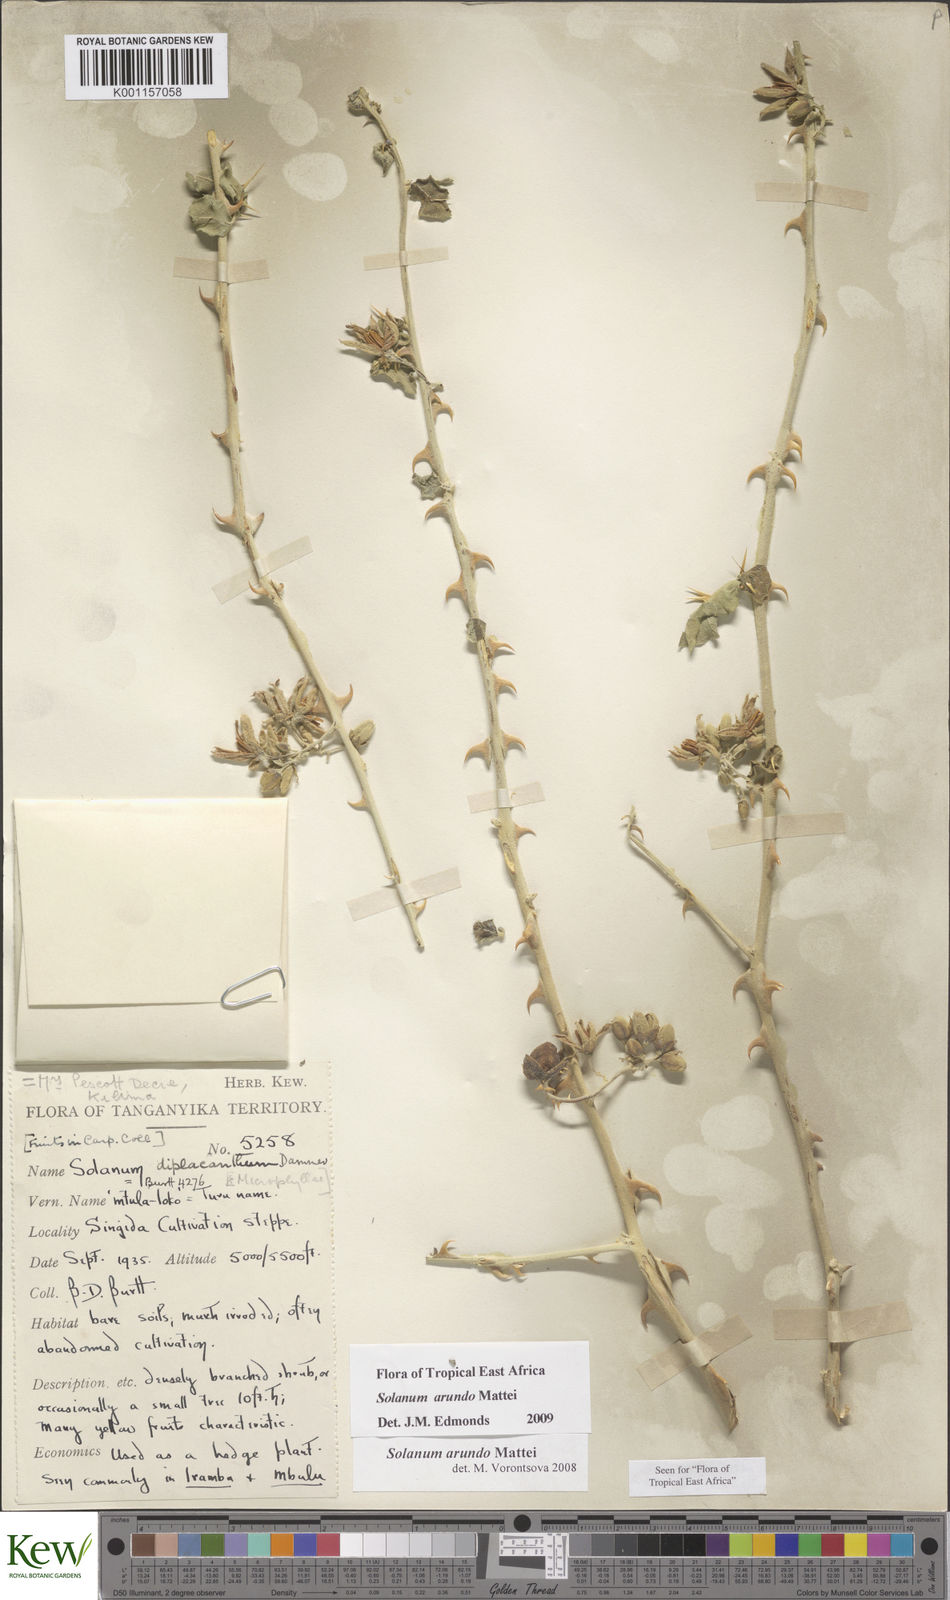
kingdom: Plantae
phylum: Tracheophyta
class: Magnoliopsida
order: Solanales
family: Solanaceae
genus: Solanum
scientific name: Solanum arundo
